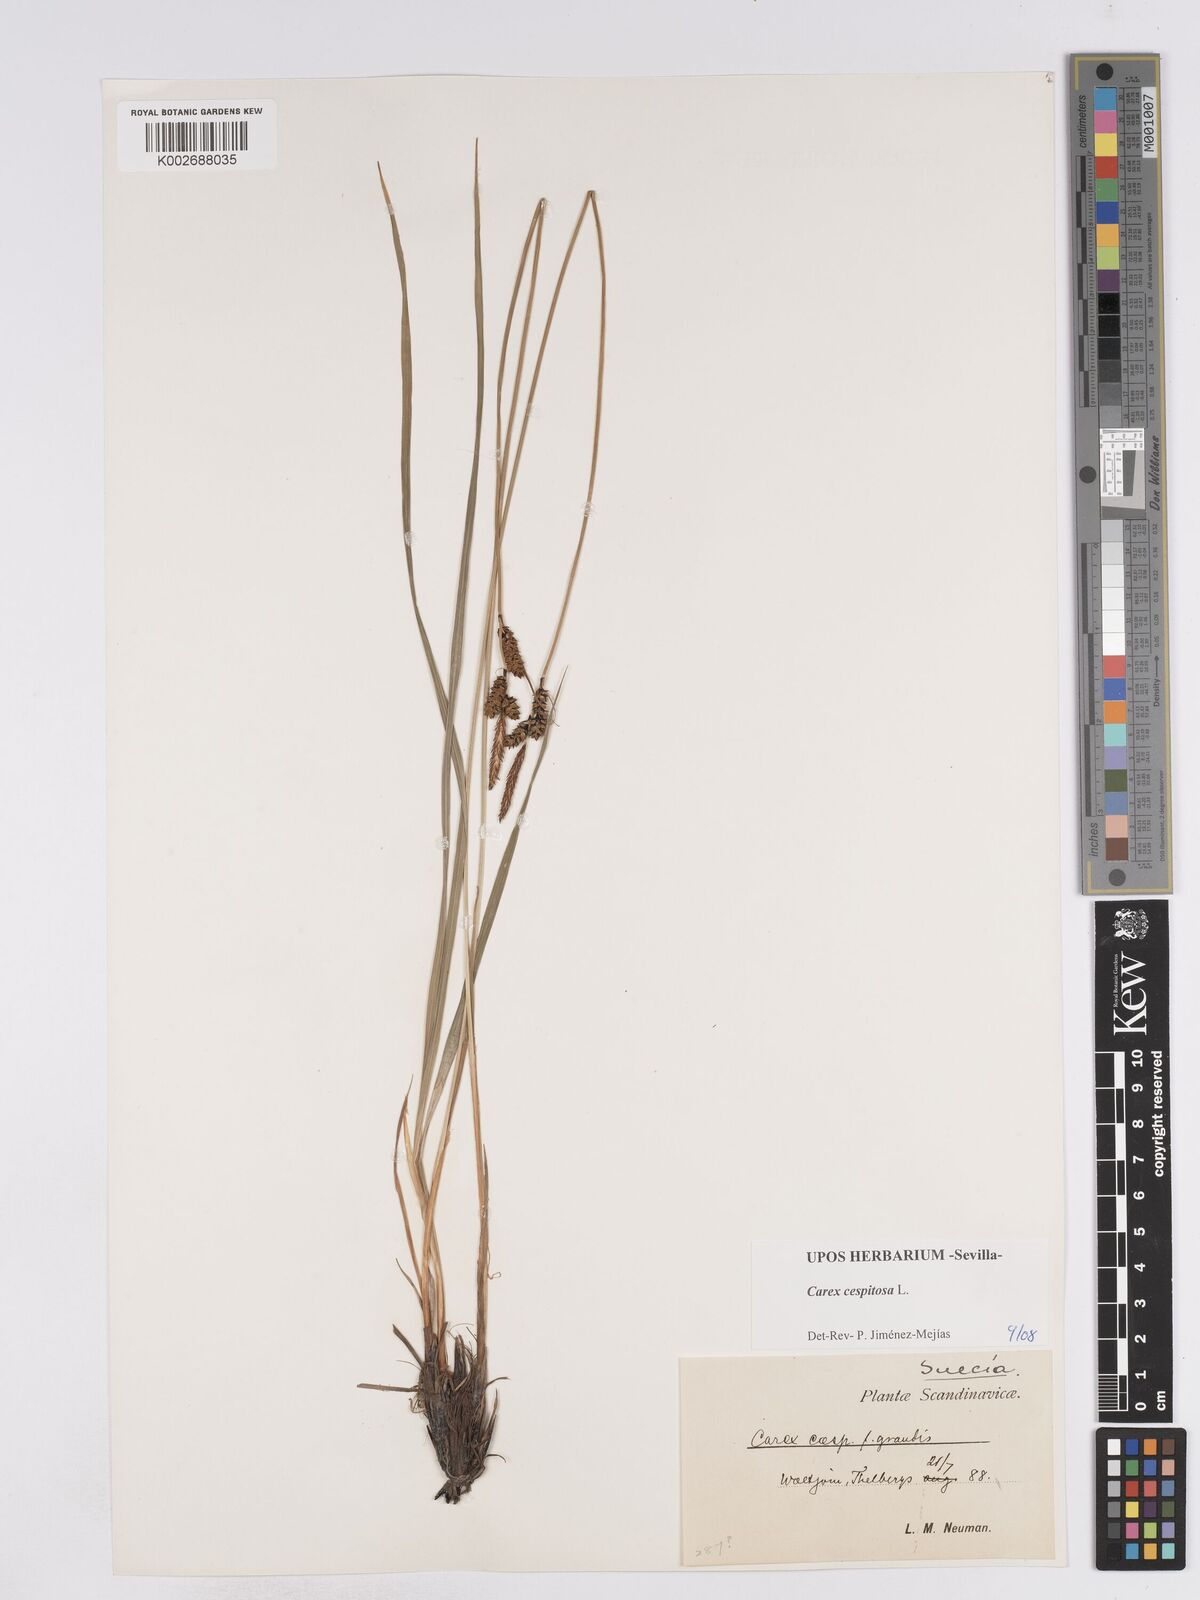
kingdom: Plantae
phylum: Tracheophyta
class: Liliopsida
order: Poales
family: Cyperaceae
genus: Carex
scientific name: Carex
